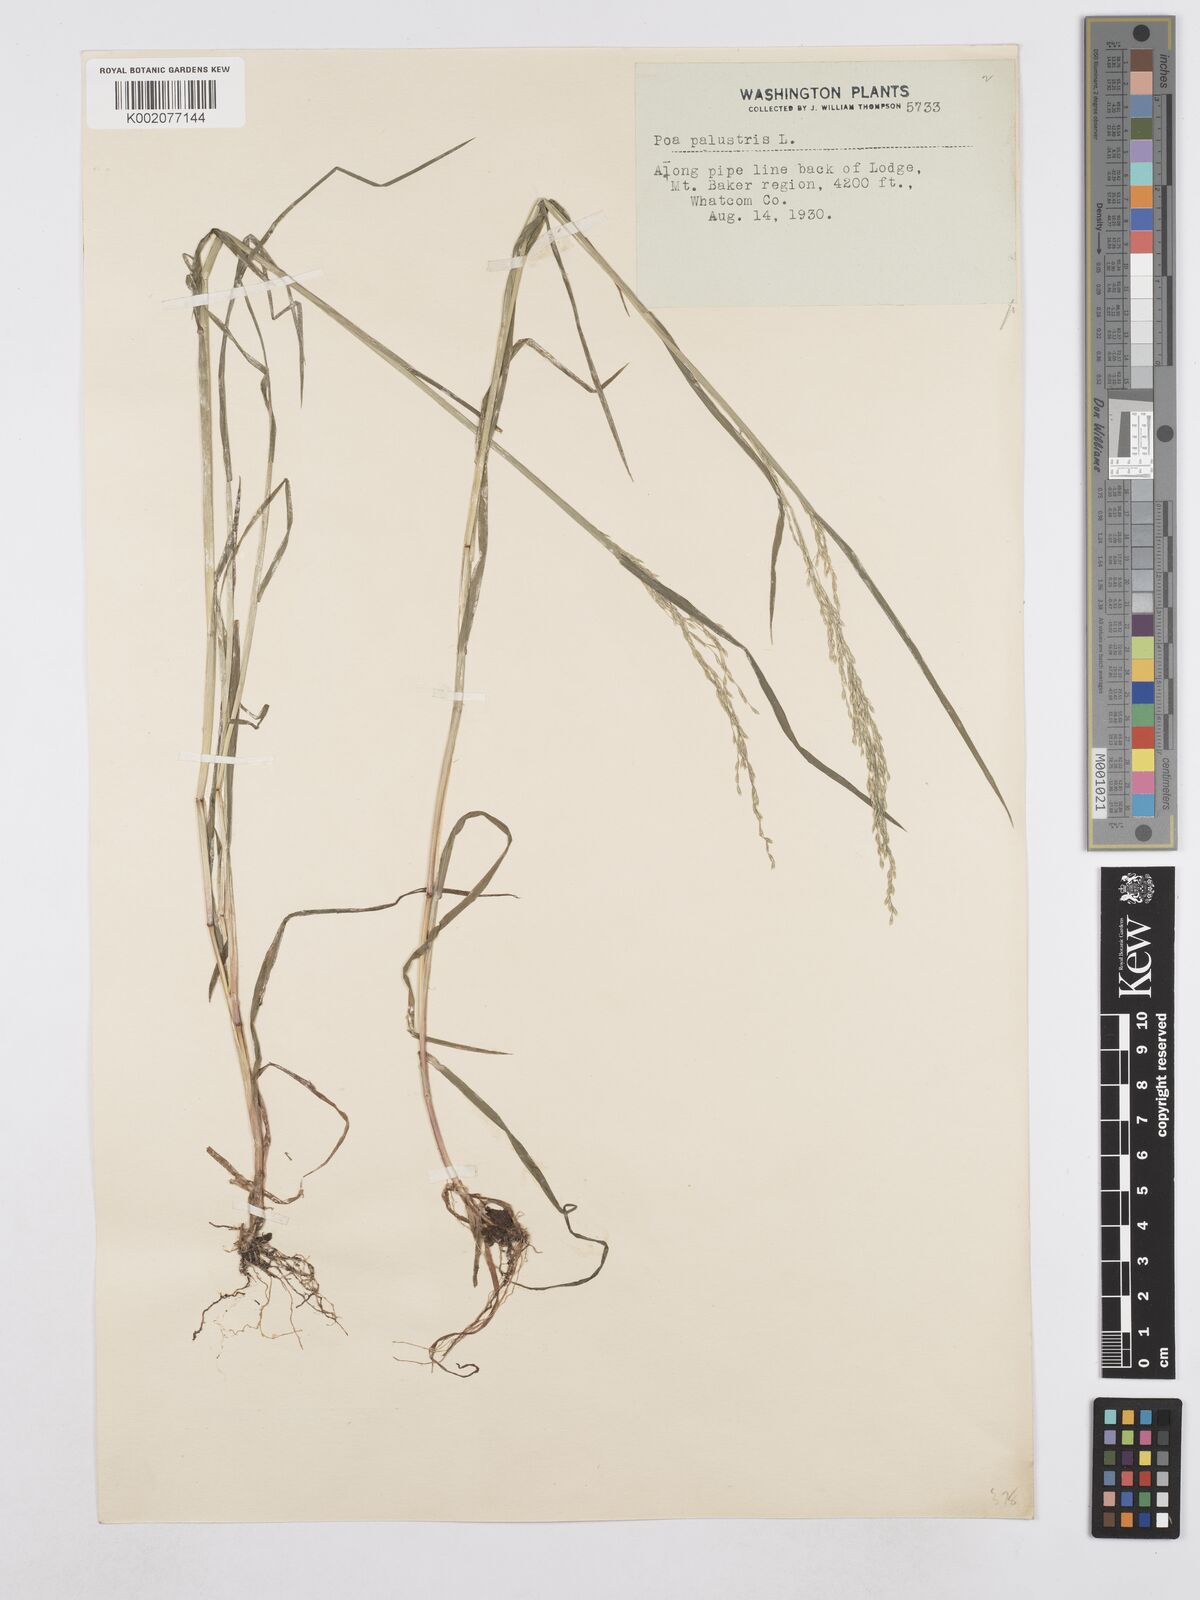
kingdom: Plantae
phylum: Tracheophyta
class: Liliopsida
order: Poales
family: Poaceae
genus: Poa
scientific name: Poa palustris
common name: Swamp meadow-grass
